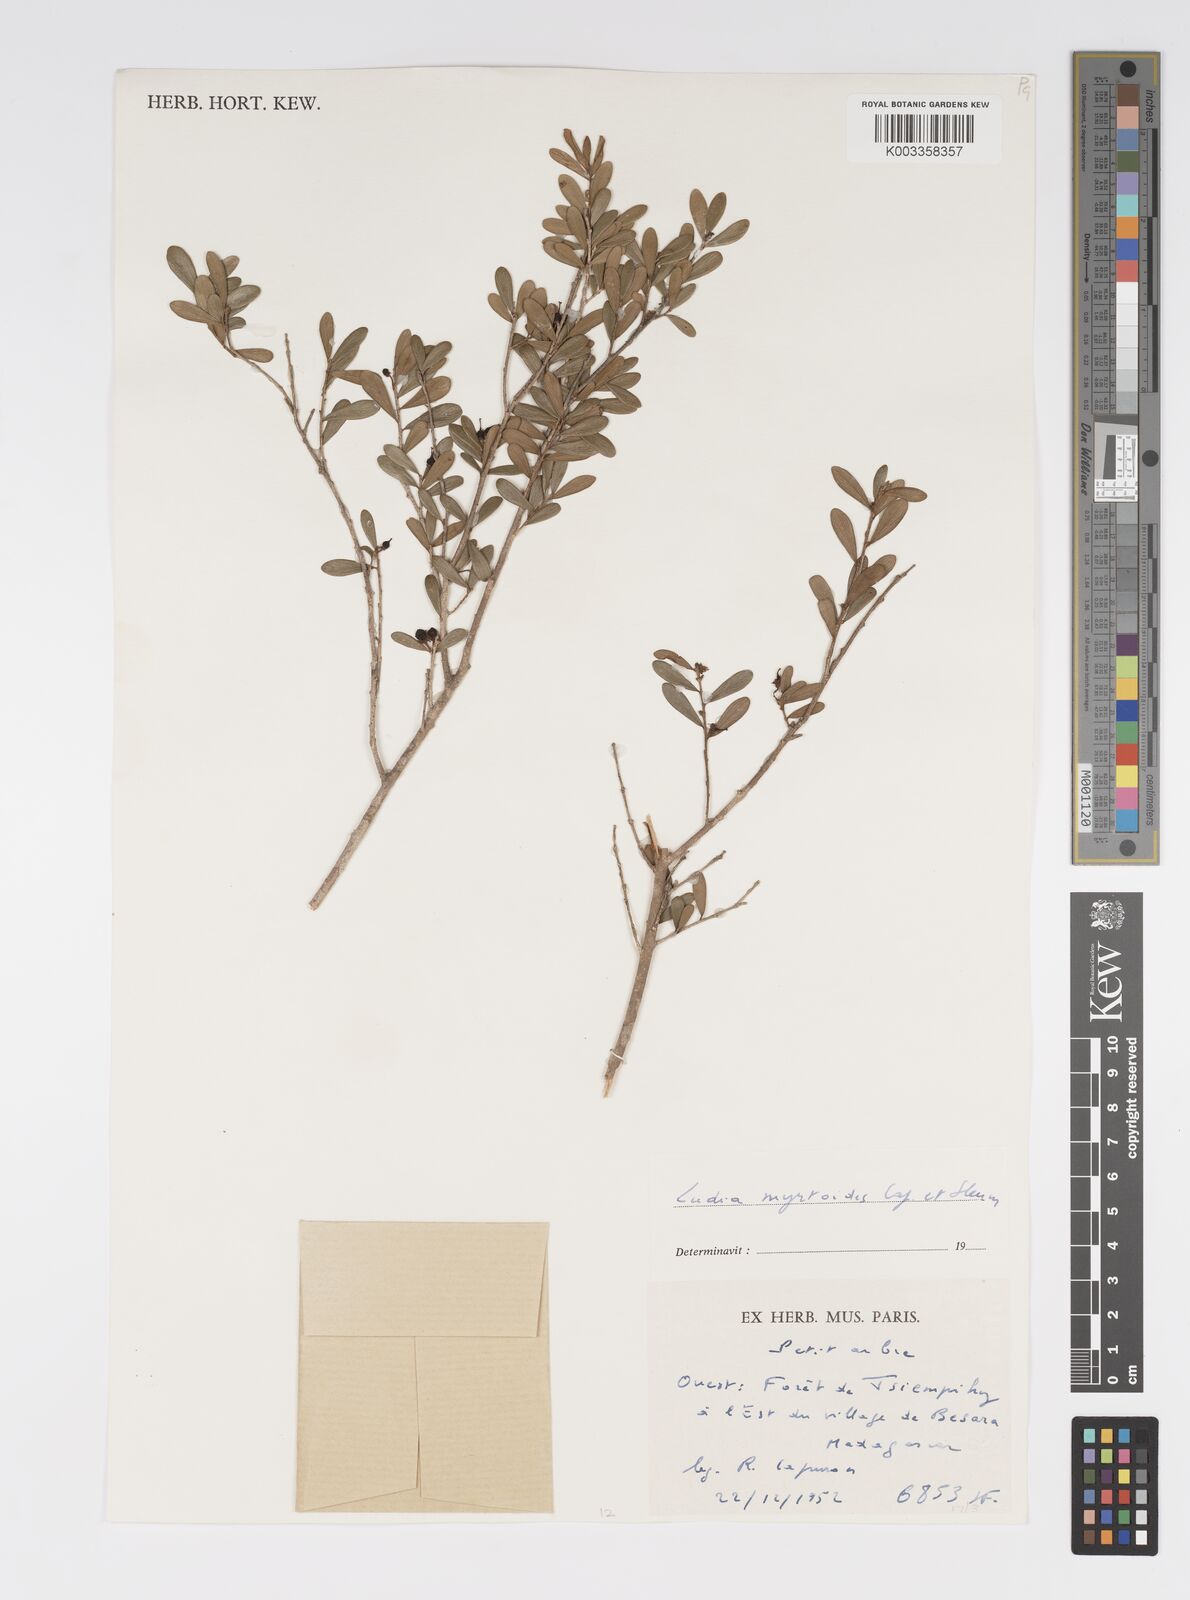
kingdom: Plantae
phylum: Tracheophyta
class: Magnoliopsida
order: Malpighiales
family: Salicaceae
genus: Scolopia
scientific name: Scolopia heterophylla
